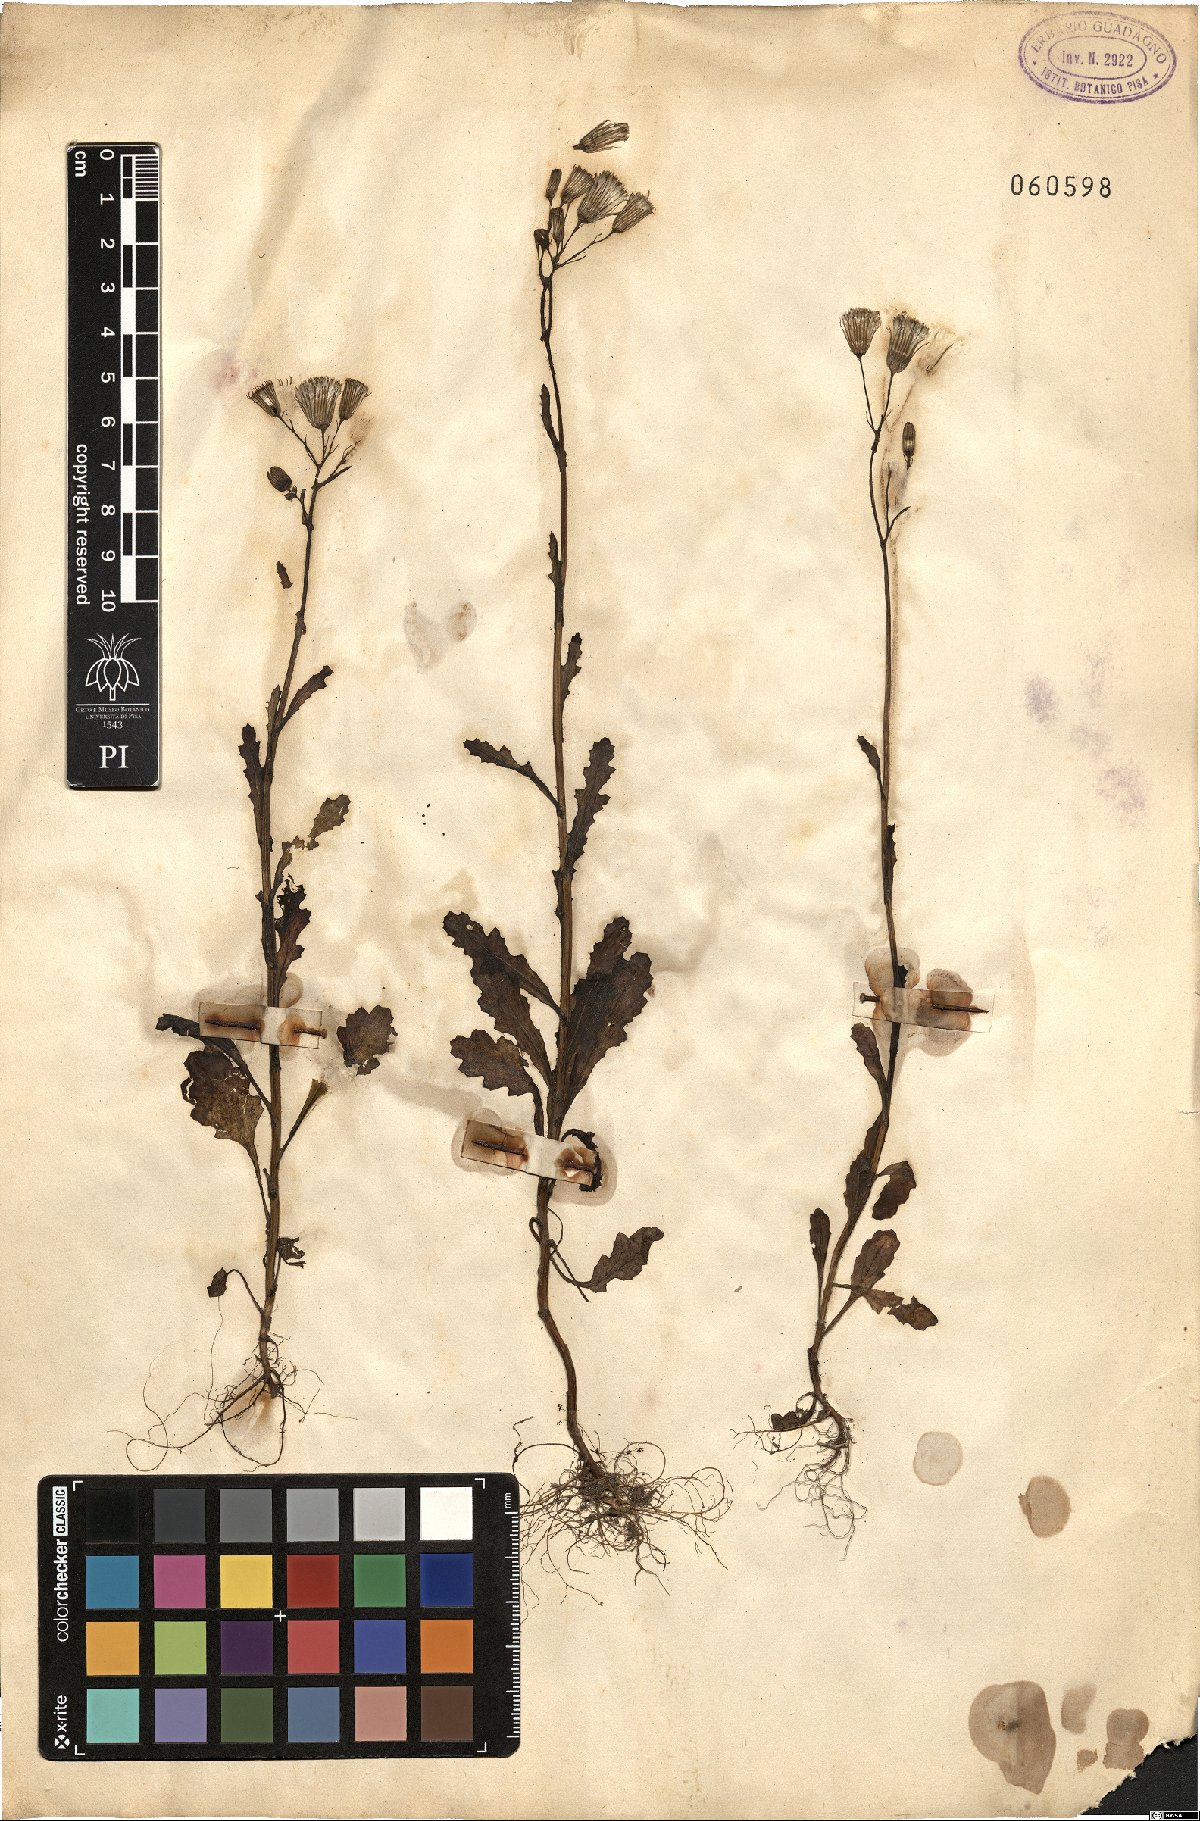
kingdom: Plantae
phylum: Tracheophyta
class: Magnoliopsida
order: Asterales
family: Asteraceae
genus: Senecio
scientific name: Senecio
